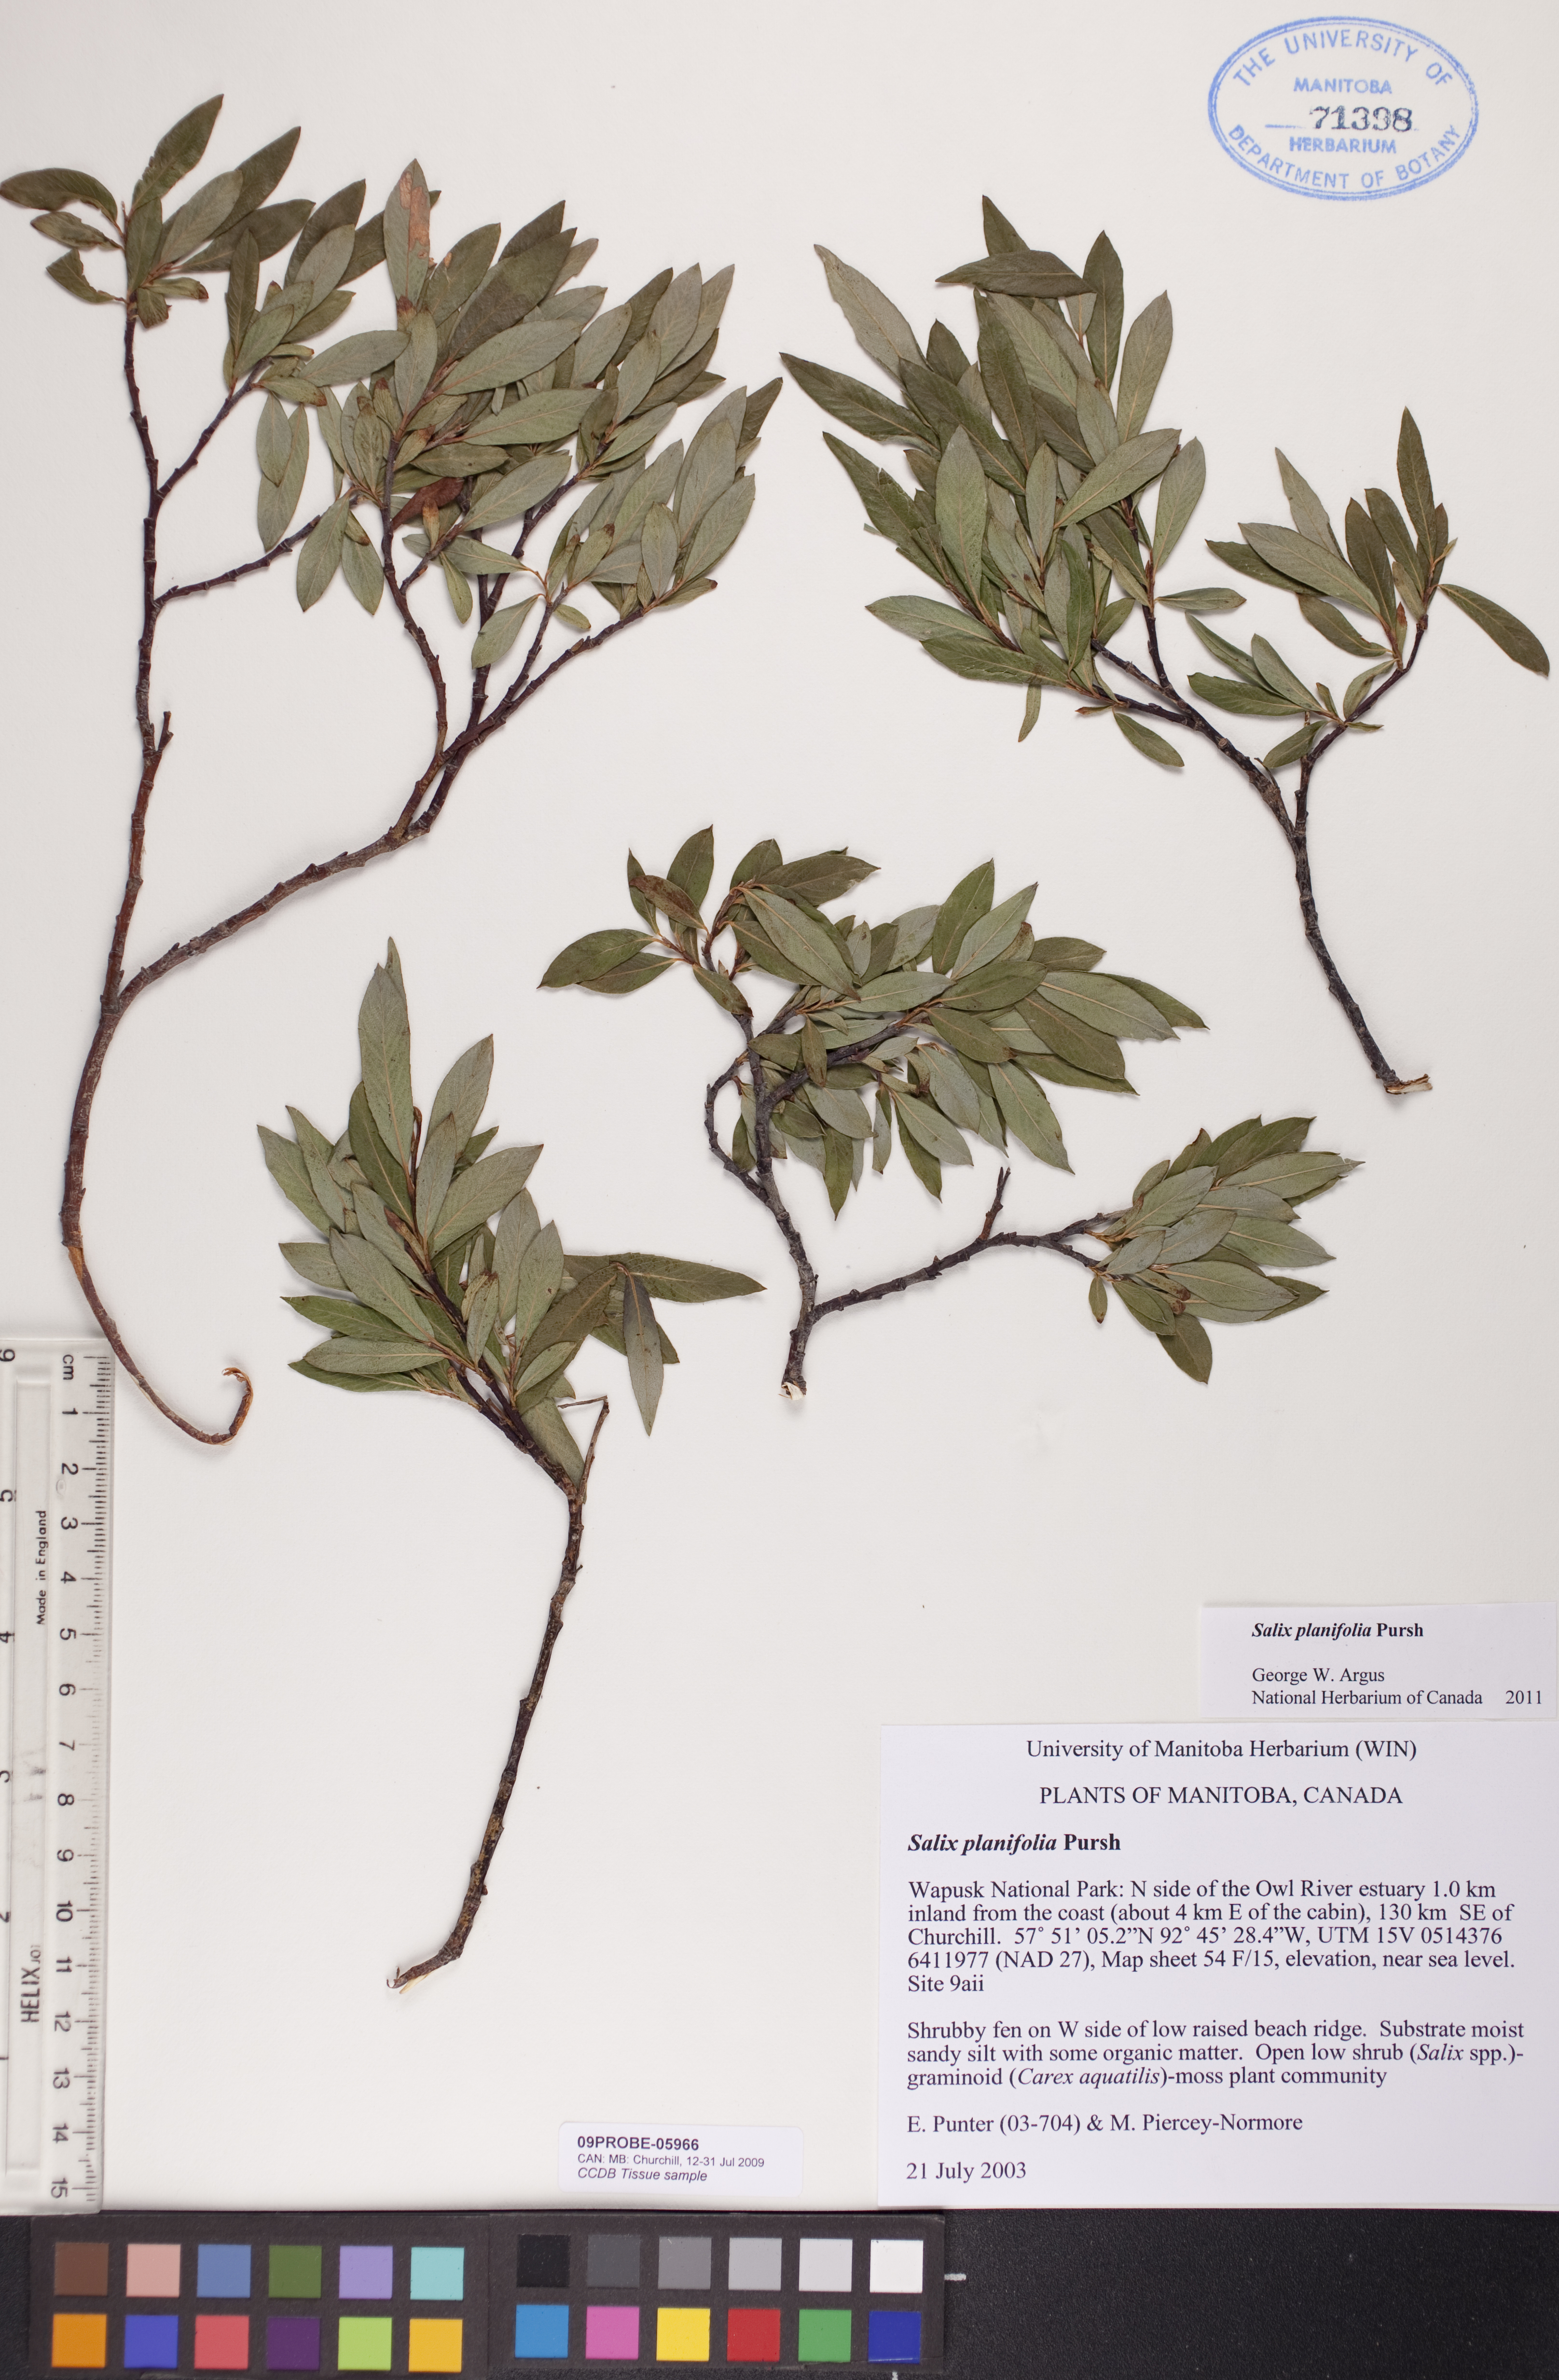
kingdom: Plantae
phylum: Tracheophyta
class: Magnoliopsida
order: Malpighiales
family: Salicaceae
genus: Salix
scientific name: Salix planifolia
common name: Mountain willow
